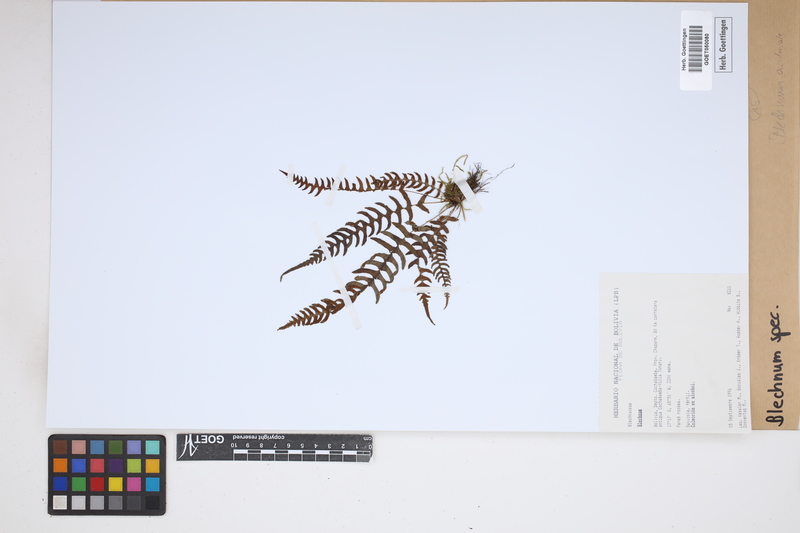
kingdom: Plantae
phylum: Tracheophyta
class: Polypodiopsida
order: Polypodiales
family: Blechnaceae
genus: Blechnum
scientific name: Blechnum
